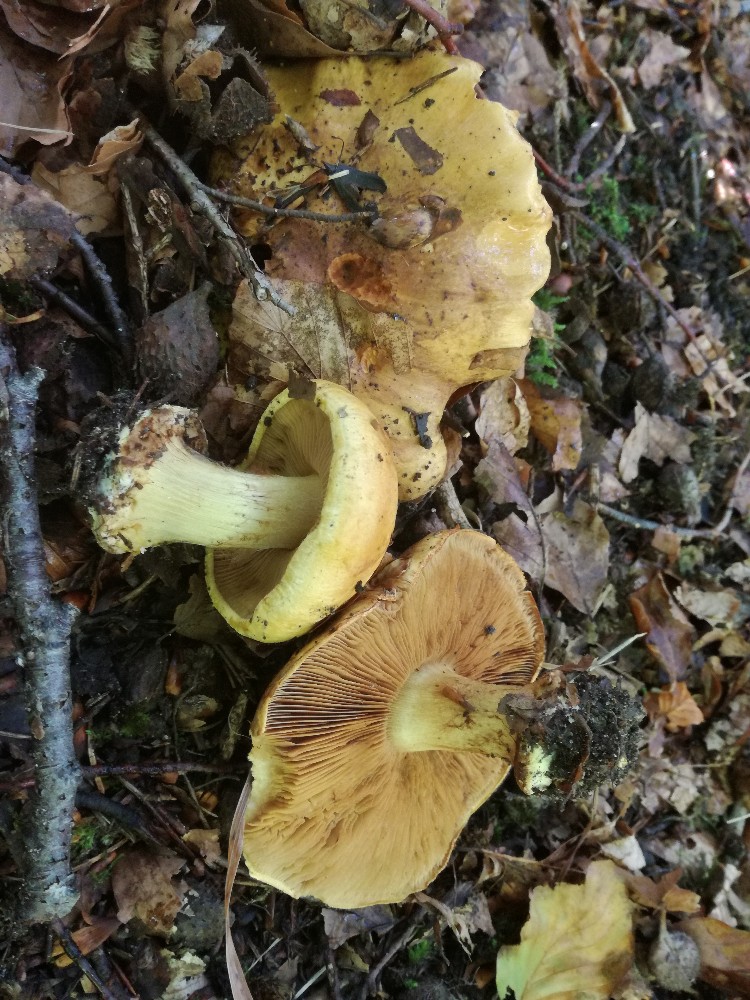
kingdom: Fungi
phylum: Basidiomycota
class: Agaricomycetes
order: Agaricales
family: Cortinariaceae
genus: Calonarius
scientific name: Calonarius alcalinophilus
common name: gyldenbrun slørhat
